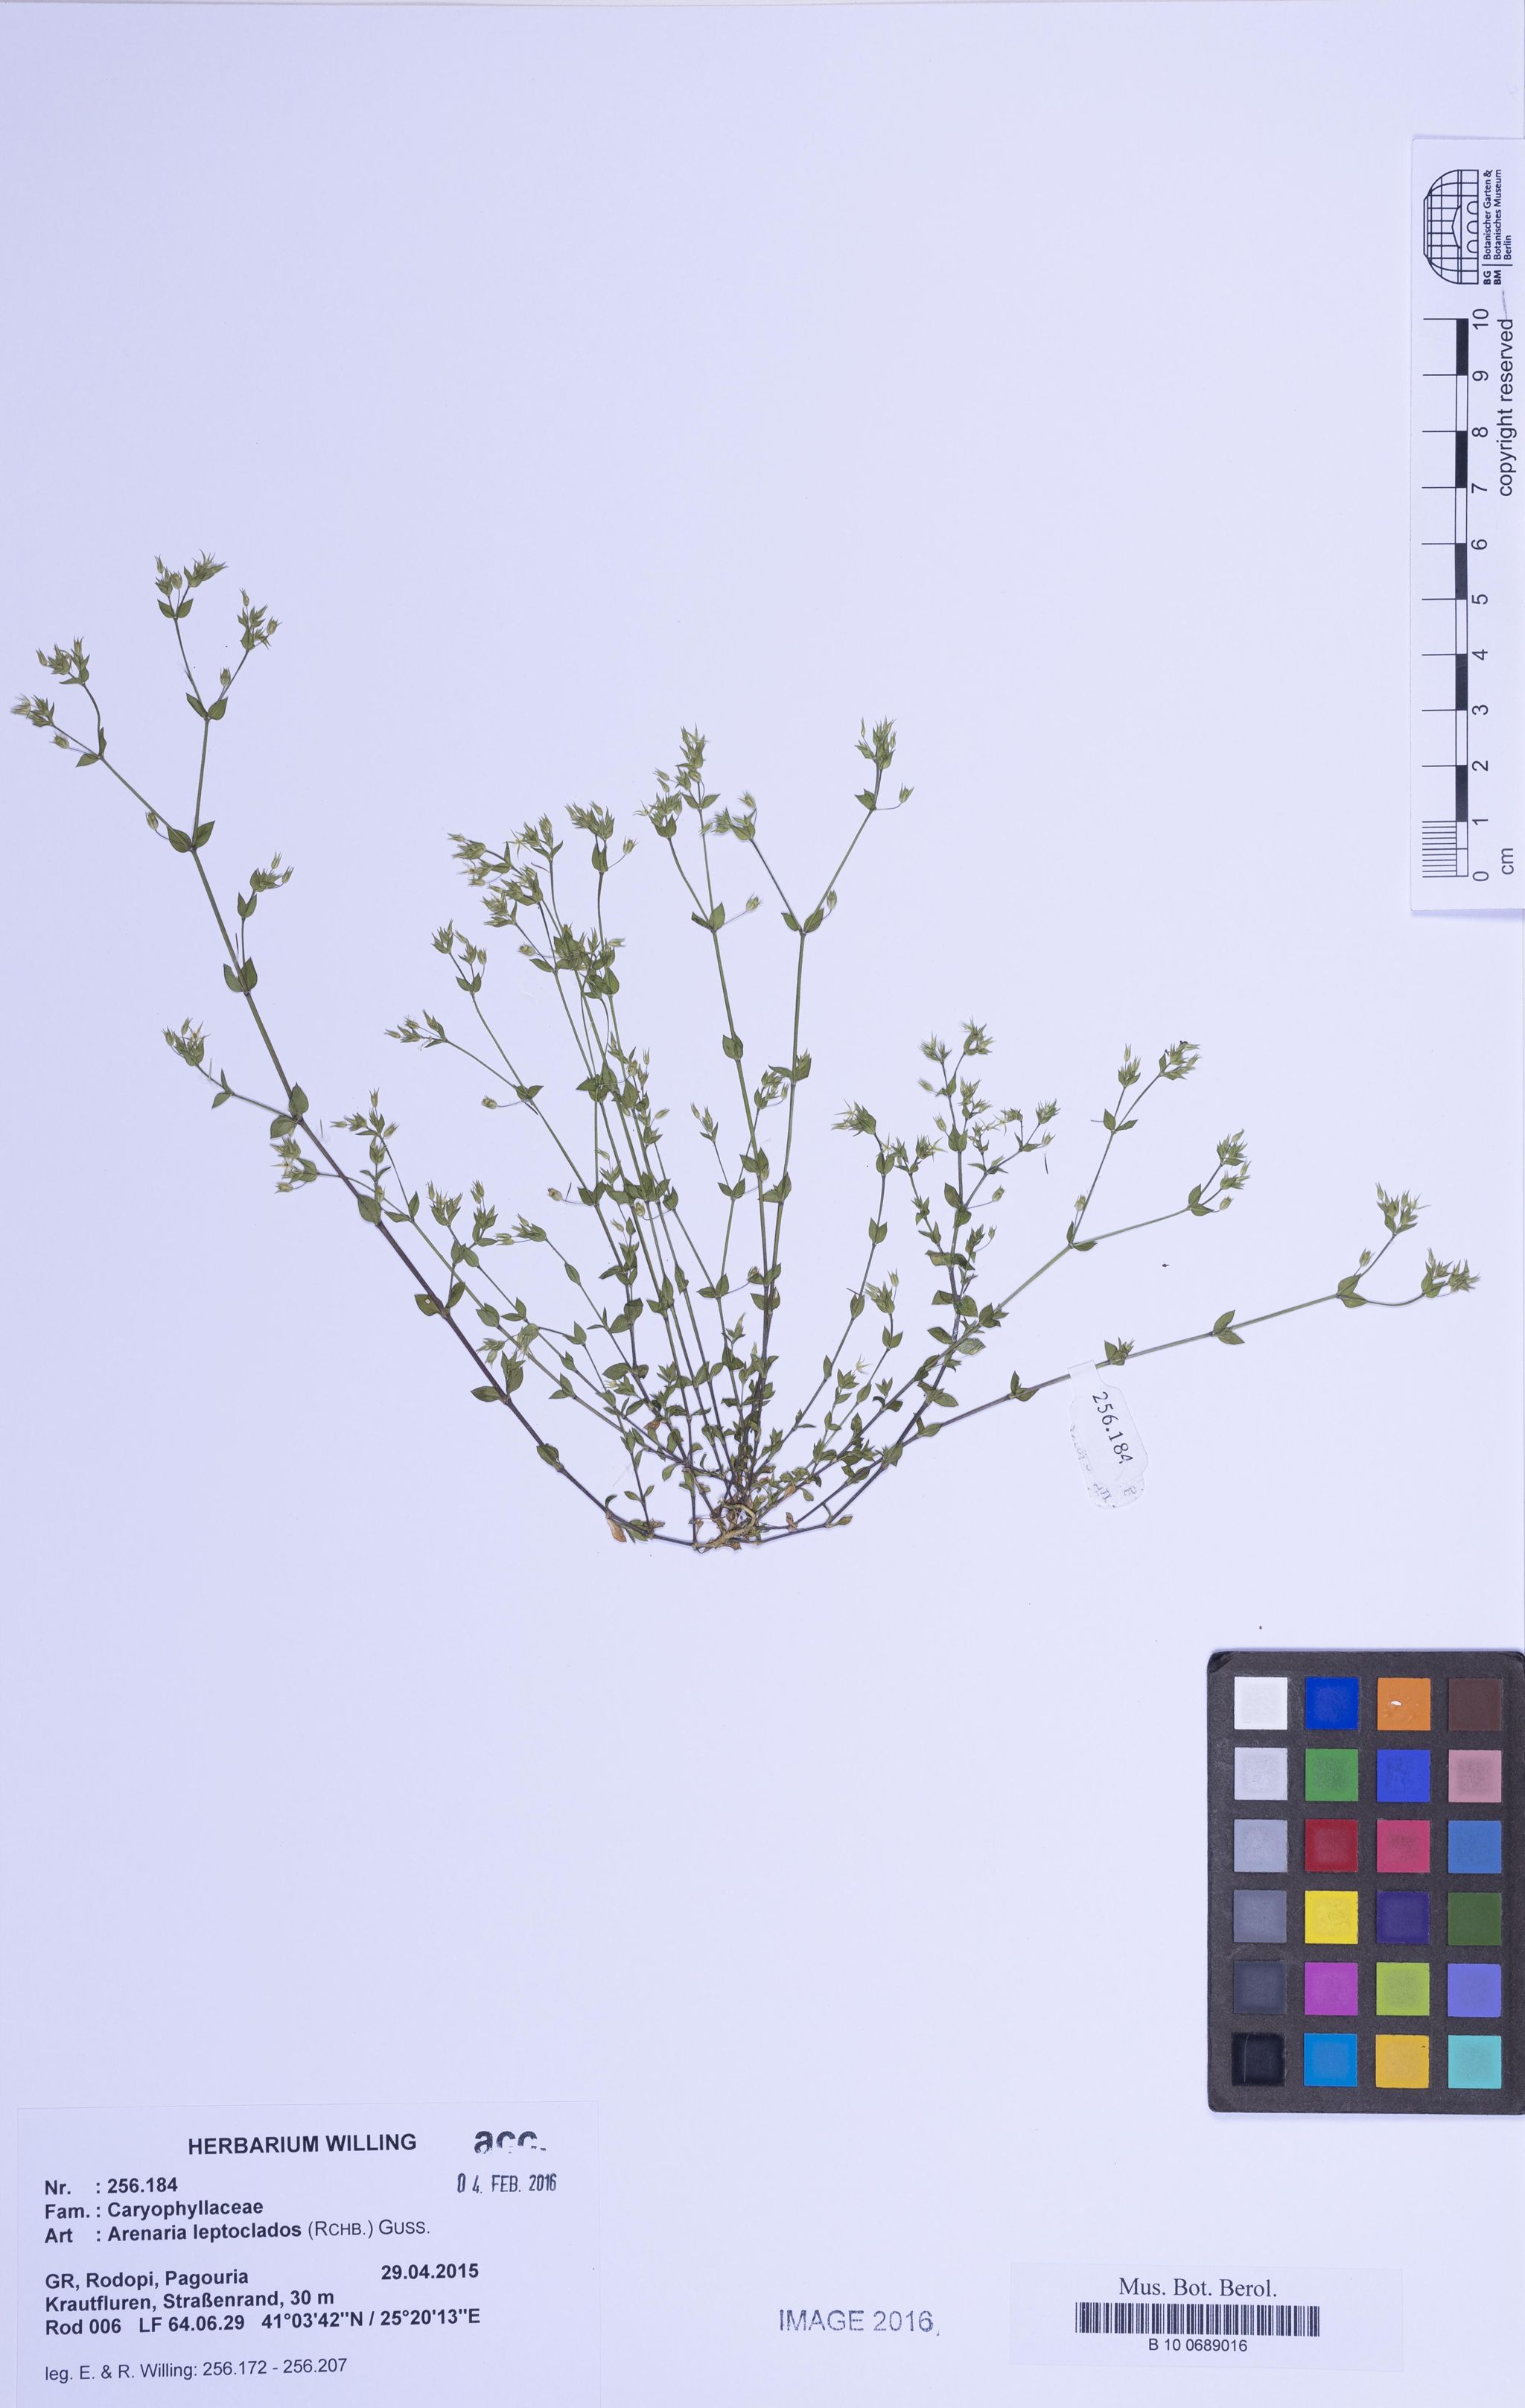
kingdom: Plantae
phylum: Tracheophyta
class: Magnoliopsida
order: Caryophyllales
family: Caryophyllaceae
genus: Arenaria
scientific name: Arenaria leptoclados
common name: Thyme-leaved sandwort
